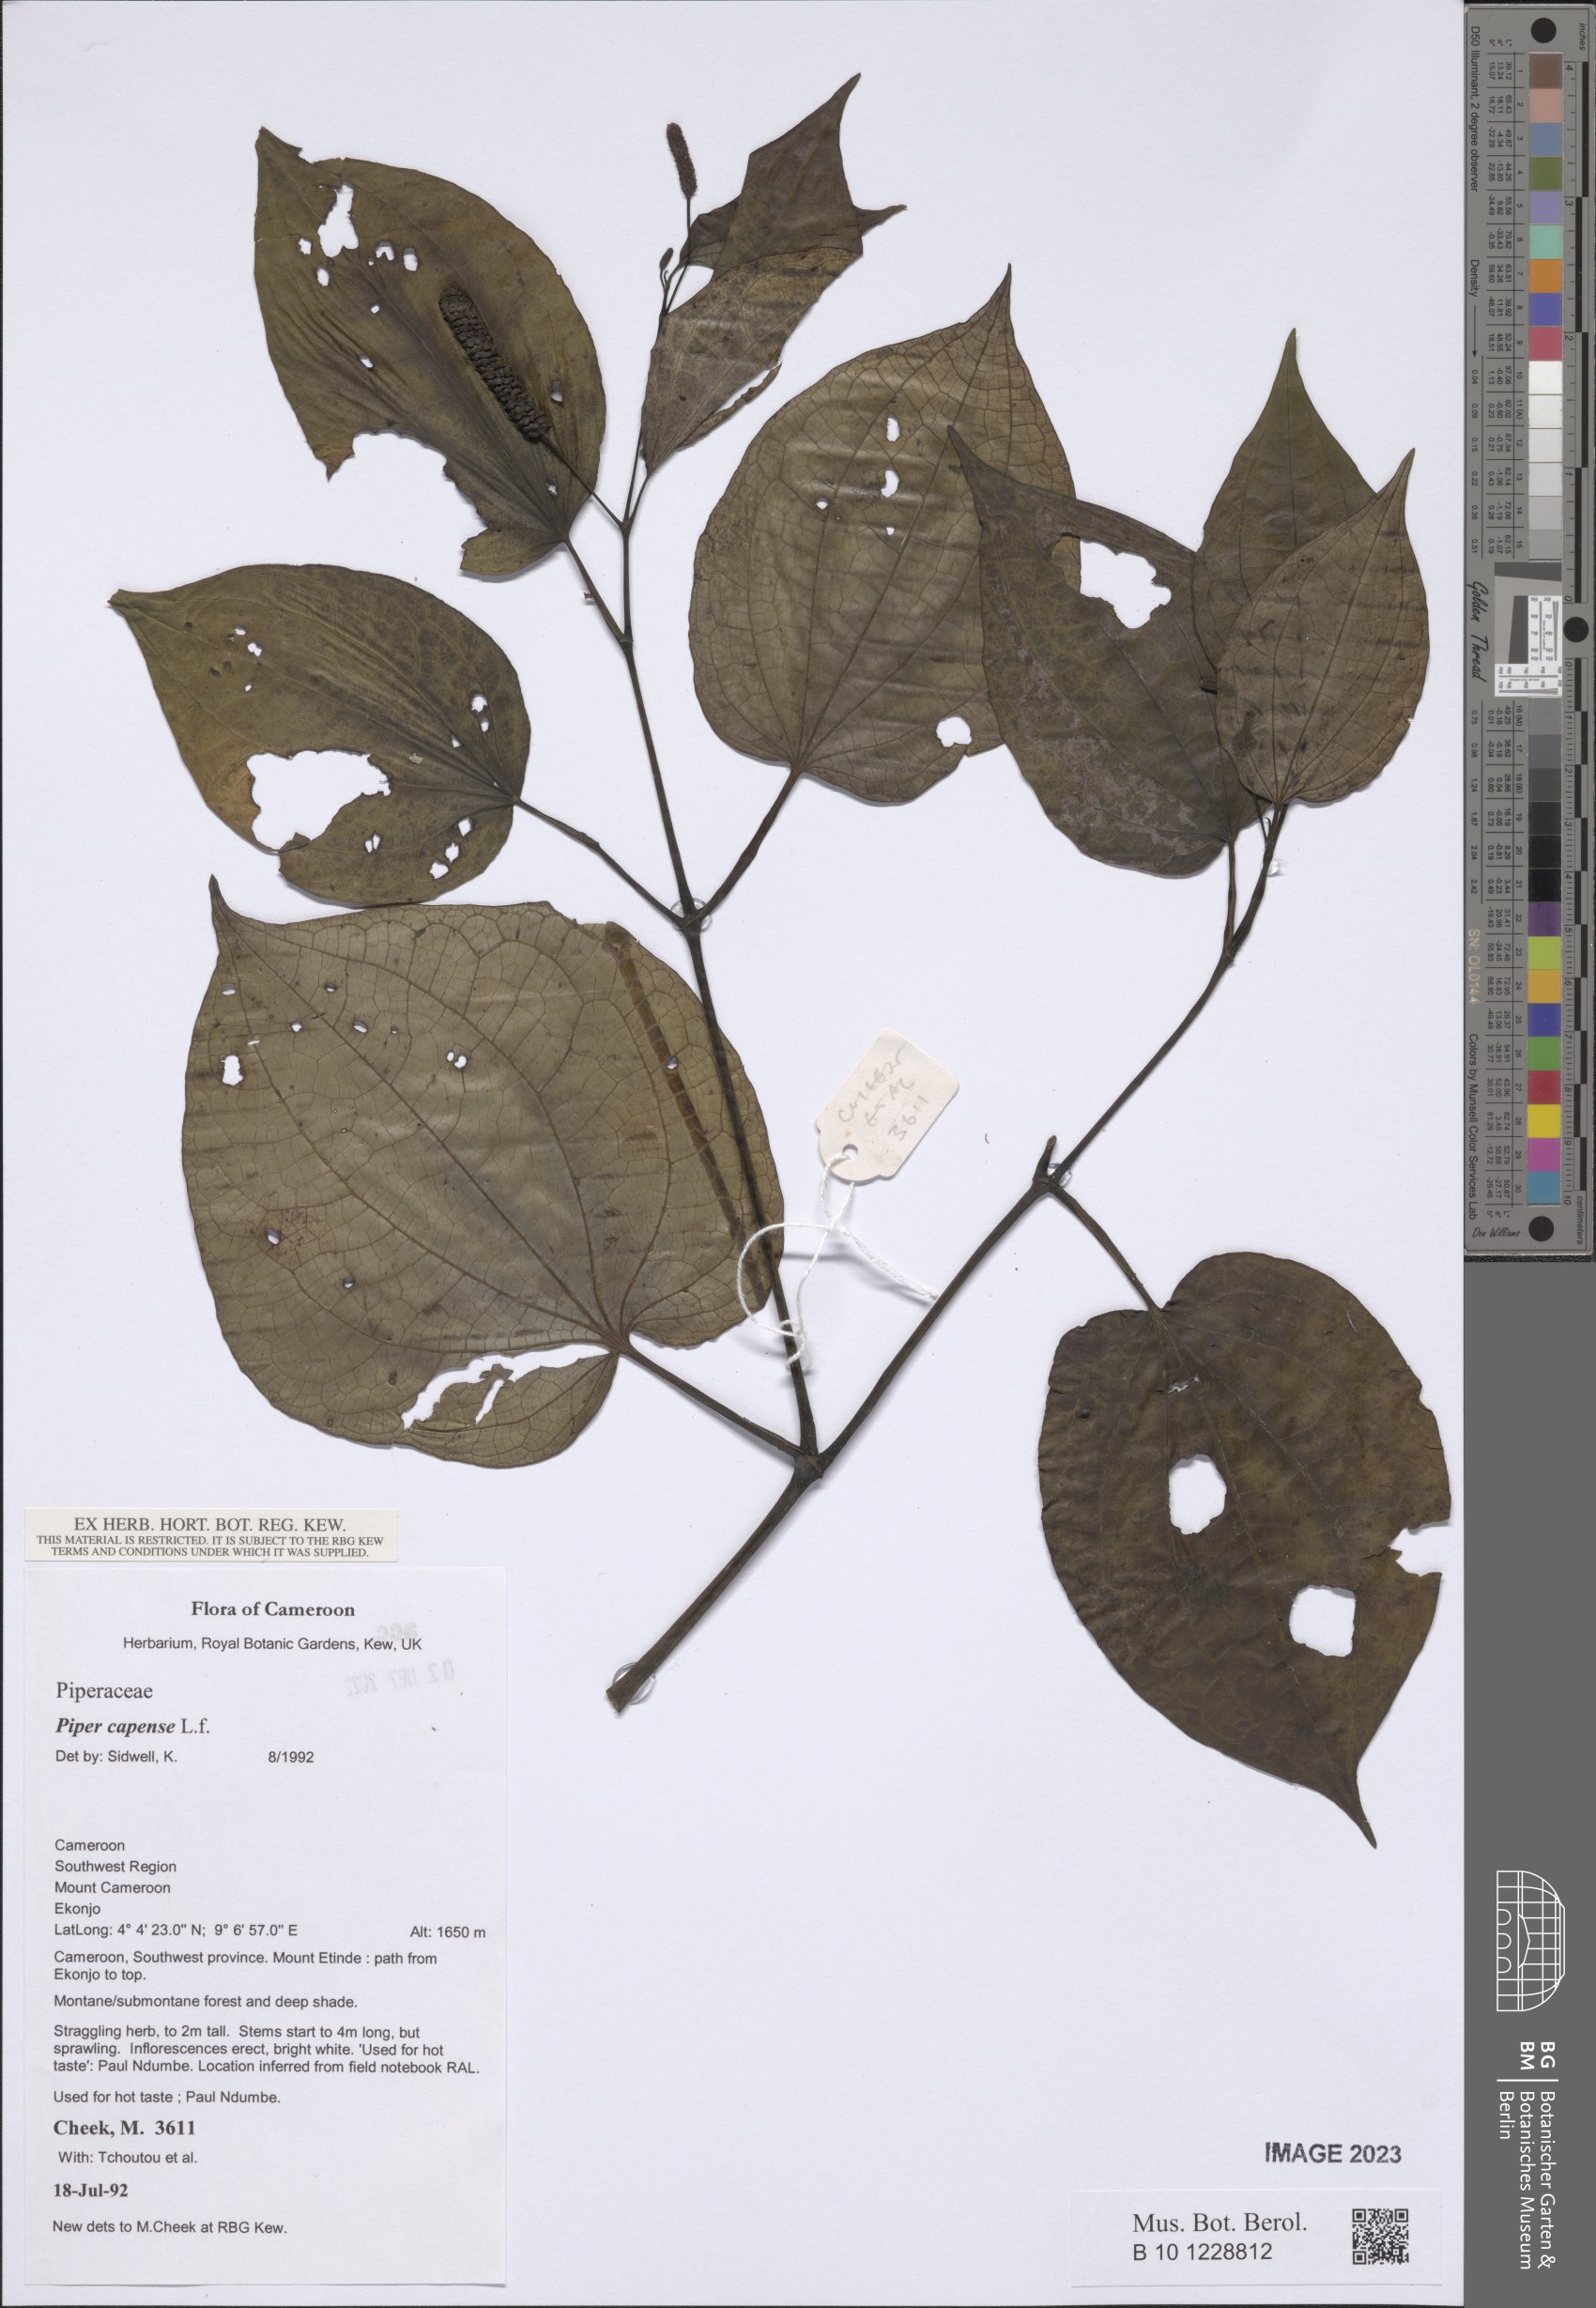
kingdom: Plantae
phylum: Tracheophyta
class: Magnoliopsida
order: Piperales
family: Piperaceae
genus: Piper
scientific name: Piper capense
